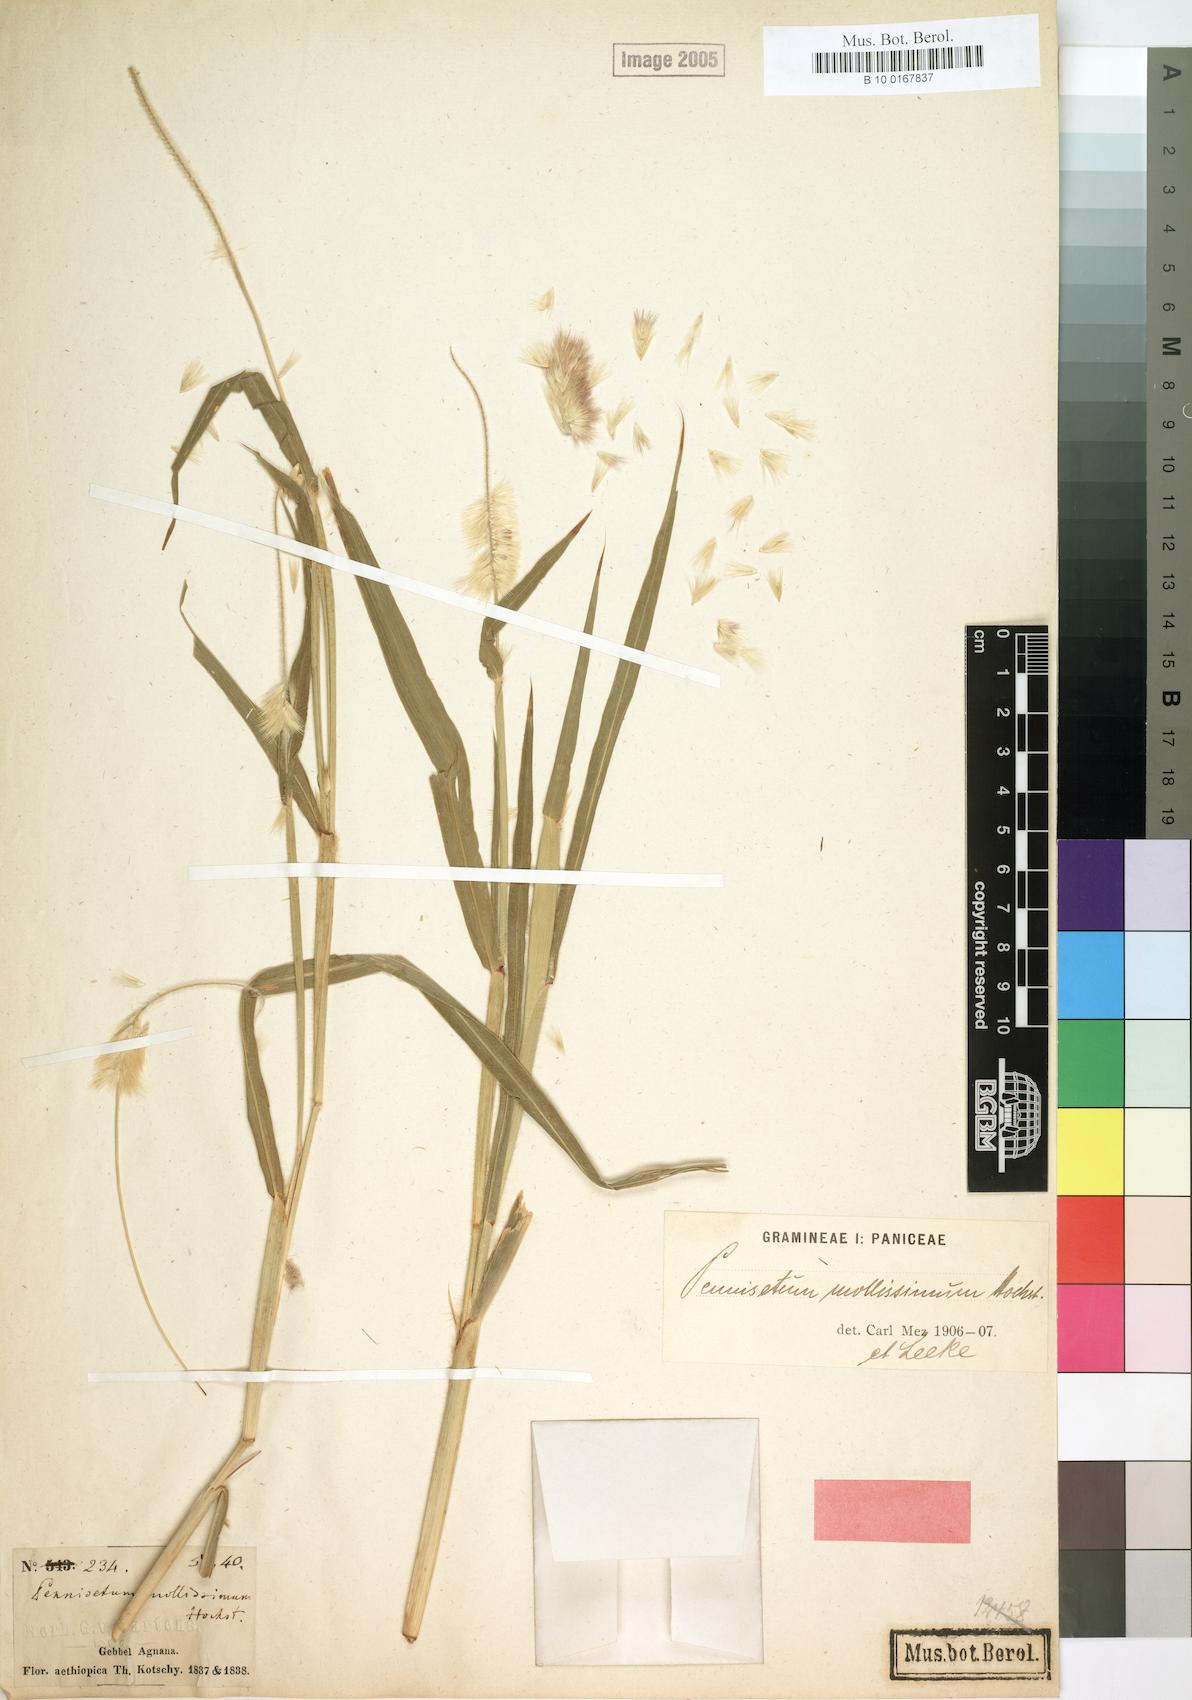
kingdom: Plantae
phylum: Tracheophyta
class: Liliopsida
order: Poales
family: Poaceae
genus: Cenchrus
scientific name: Cenchrus violaceus
